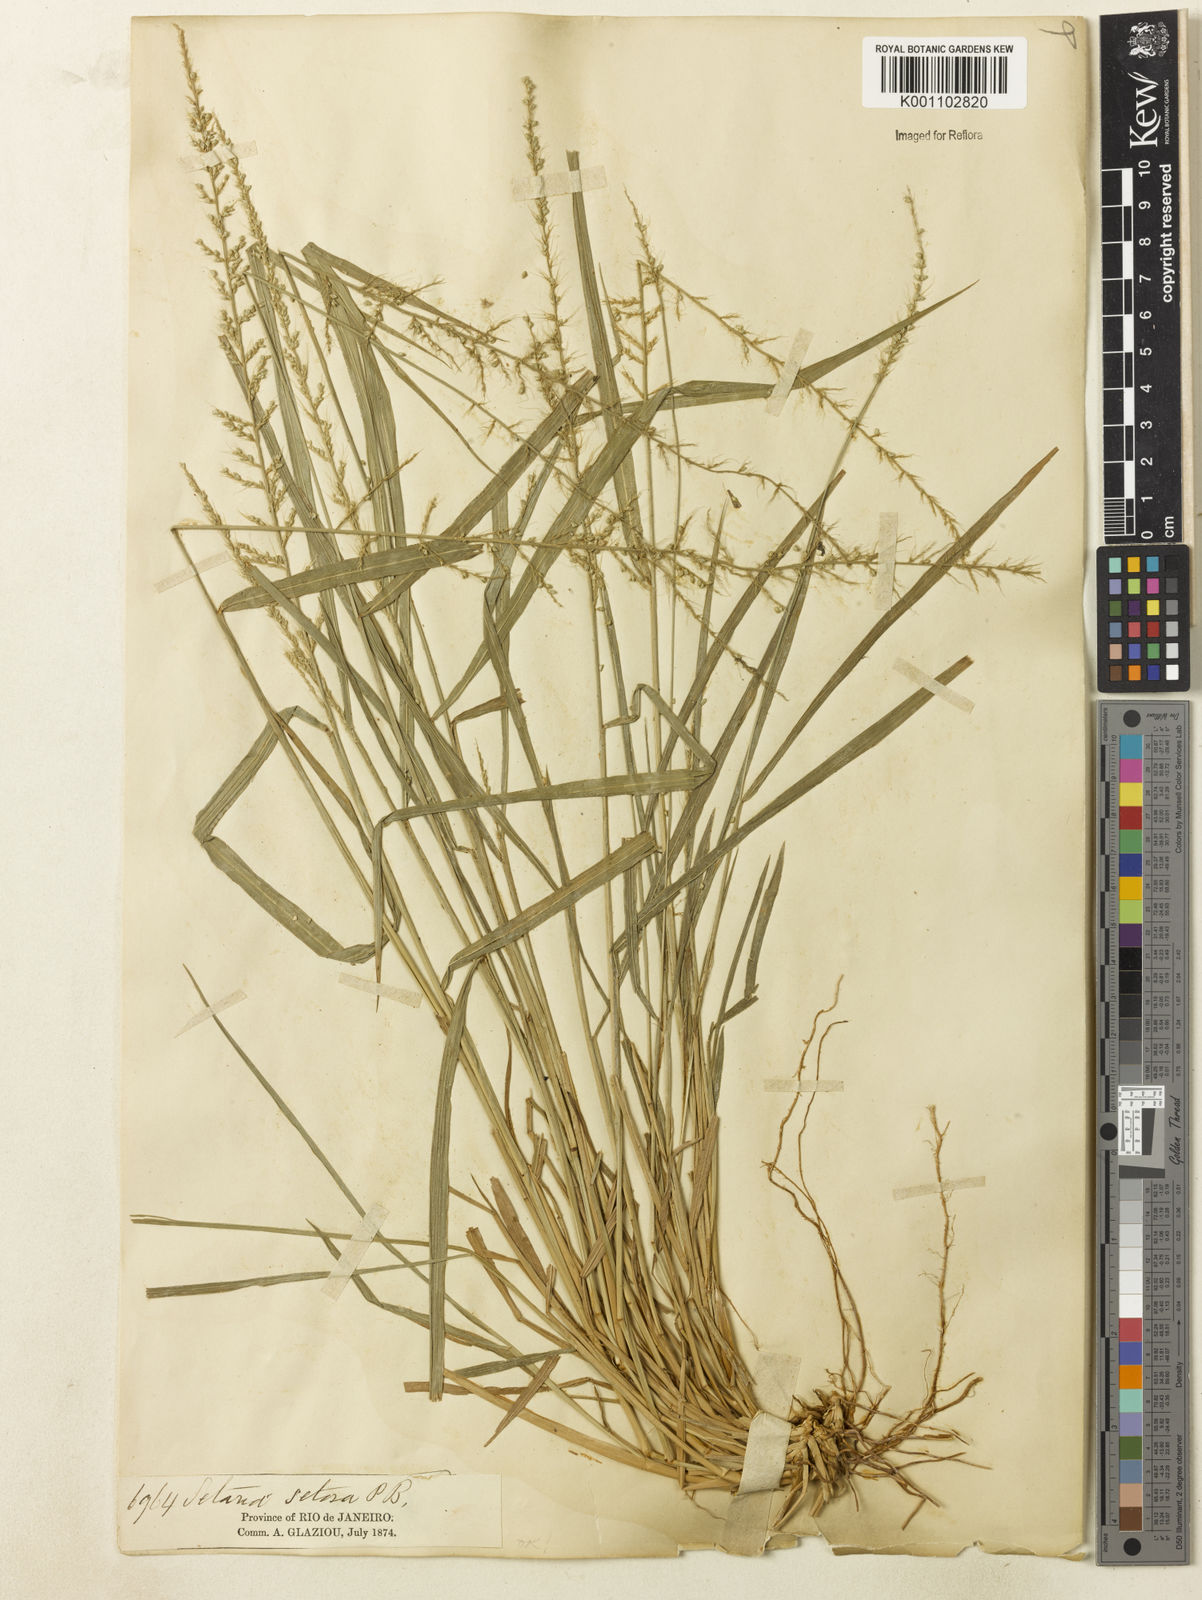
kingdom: Plantae
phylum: Tracheophyta
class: Liliopsida
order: Poales
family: Poaceae
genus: Setaria
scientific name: Setaria setosa
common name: West indies bristle grass
